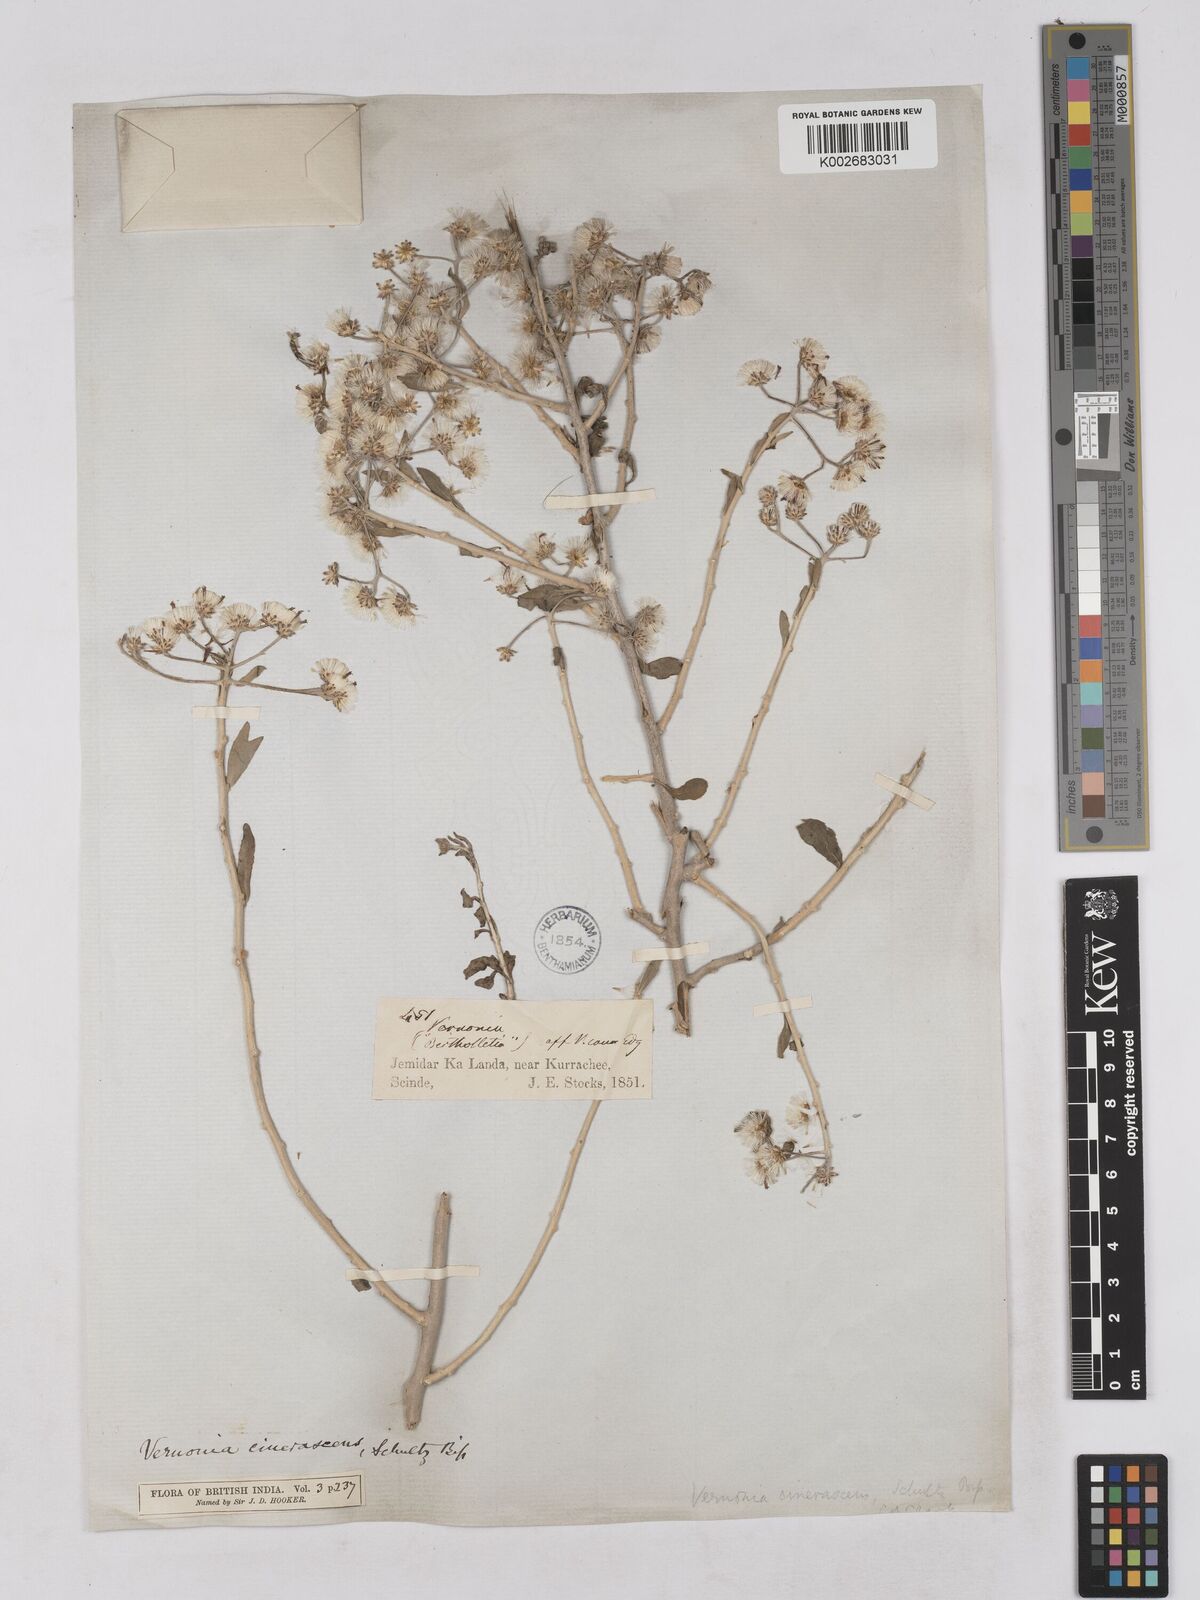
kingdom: Plantae
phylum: Tracheophyta
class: Magnoliopsida
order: Asterales
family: Asteraceae
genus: Orbivestus
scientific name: Orbivestus cinerascens
